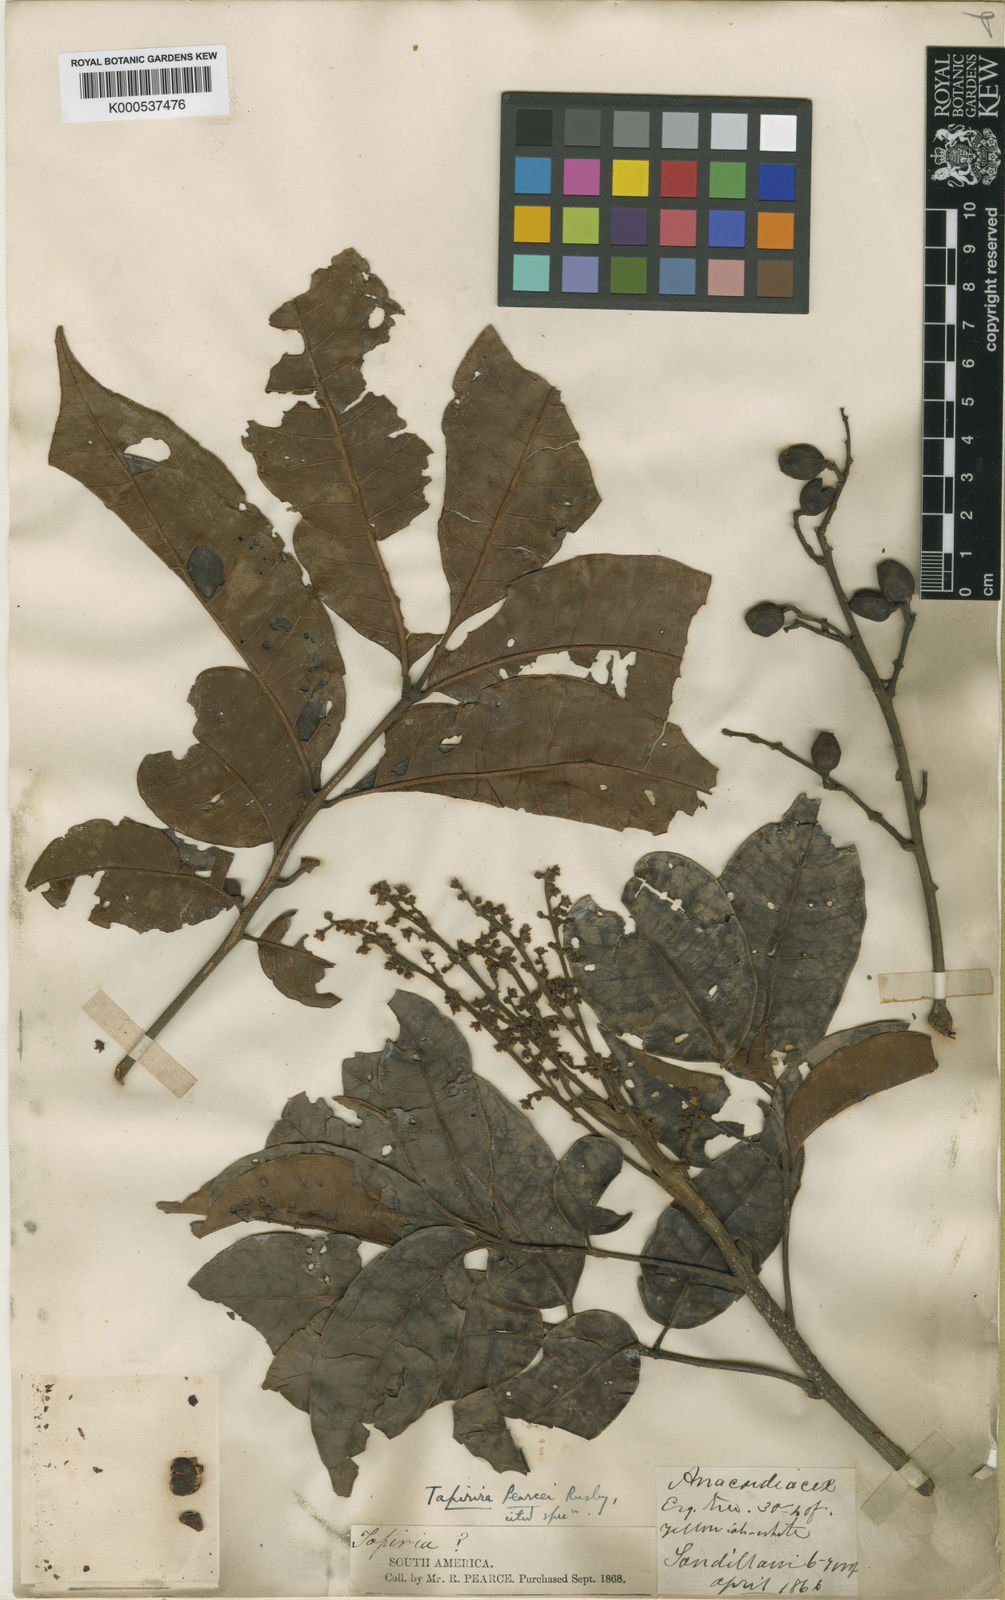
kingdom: Plantae
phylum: Tracheophyta
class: Magnoliopsida
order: Sapindales
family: Anacardiaceae
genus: Tapirira
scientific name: Tapirira guianensis
